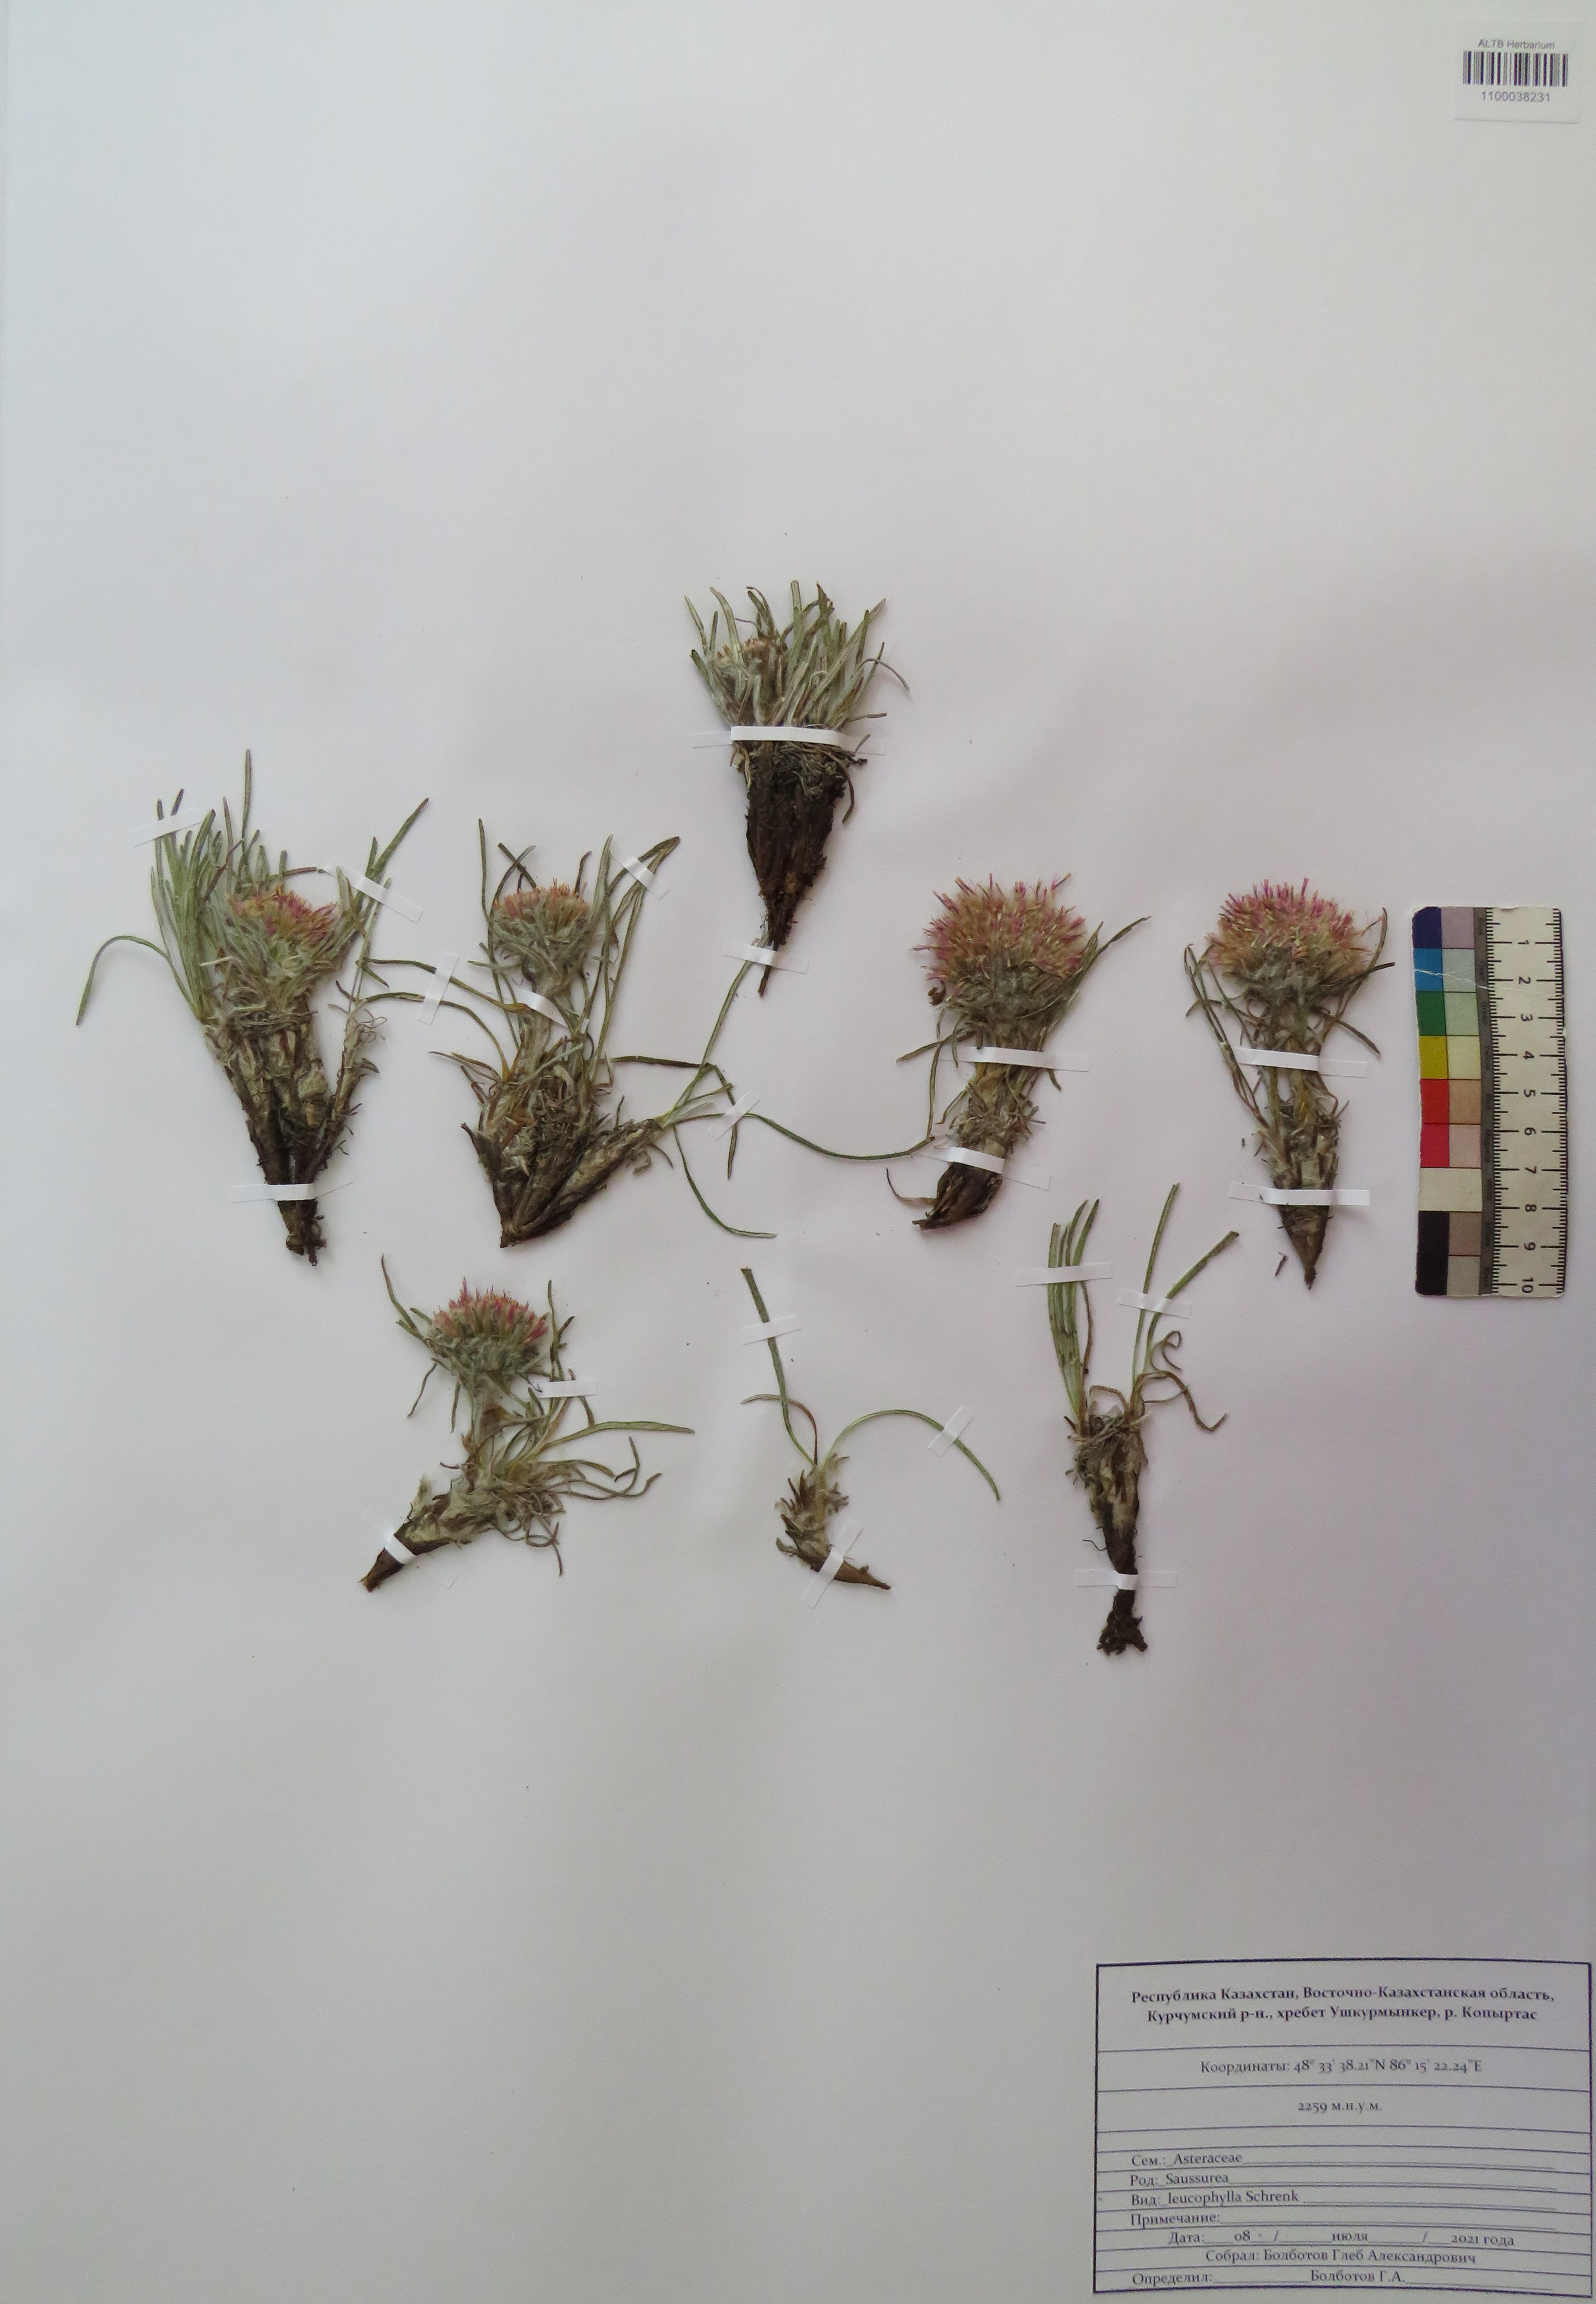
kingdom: Plantae
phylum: Tracheophyta
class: Magnoliopsida
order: Asterales
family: Asteraceae
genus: Saussurea
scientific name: Saussurea leucophylla
